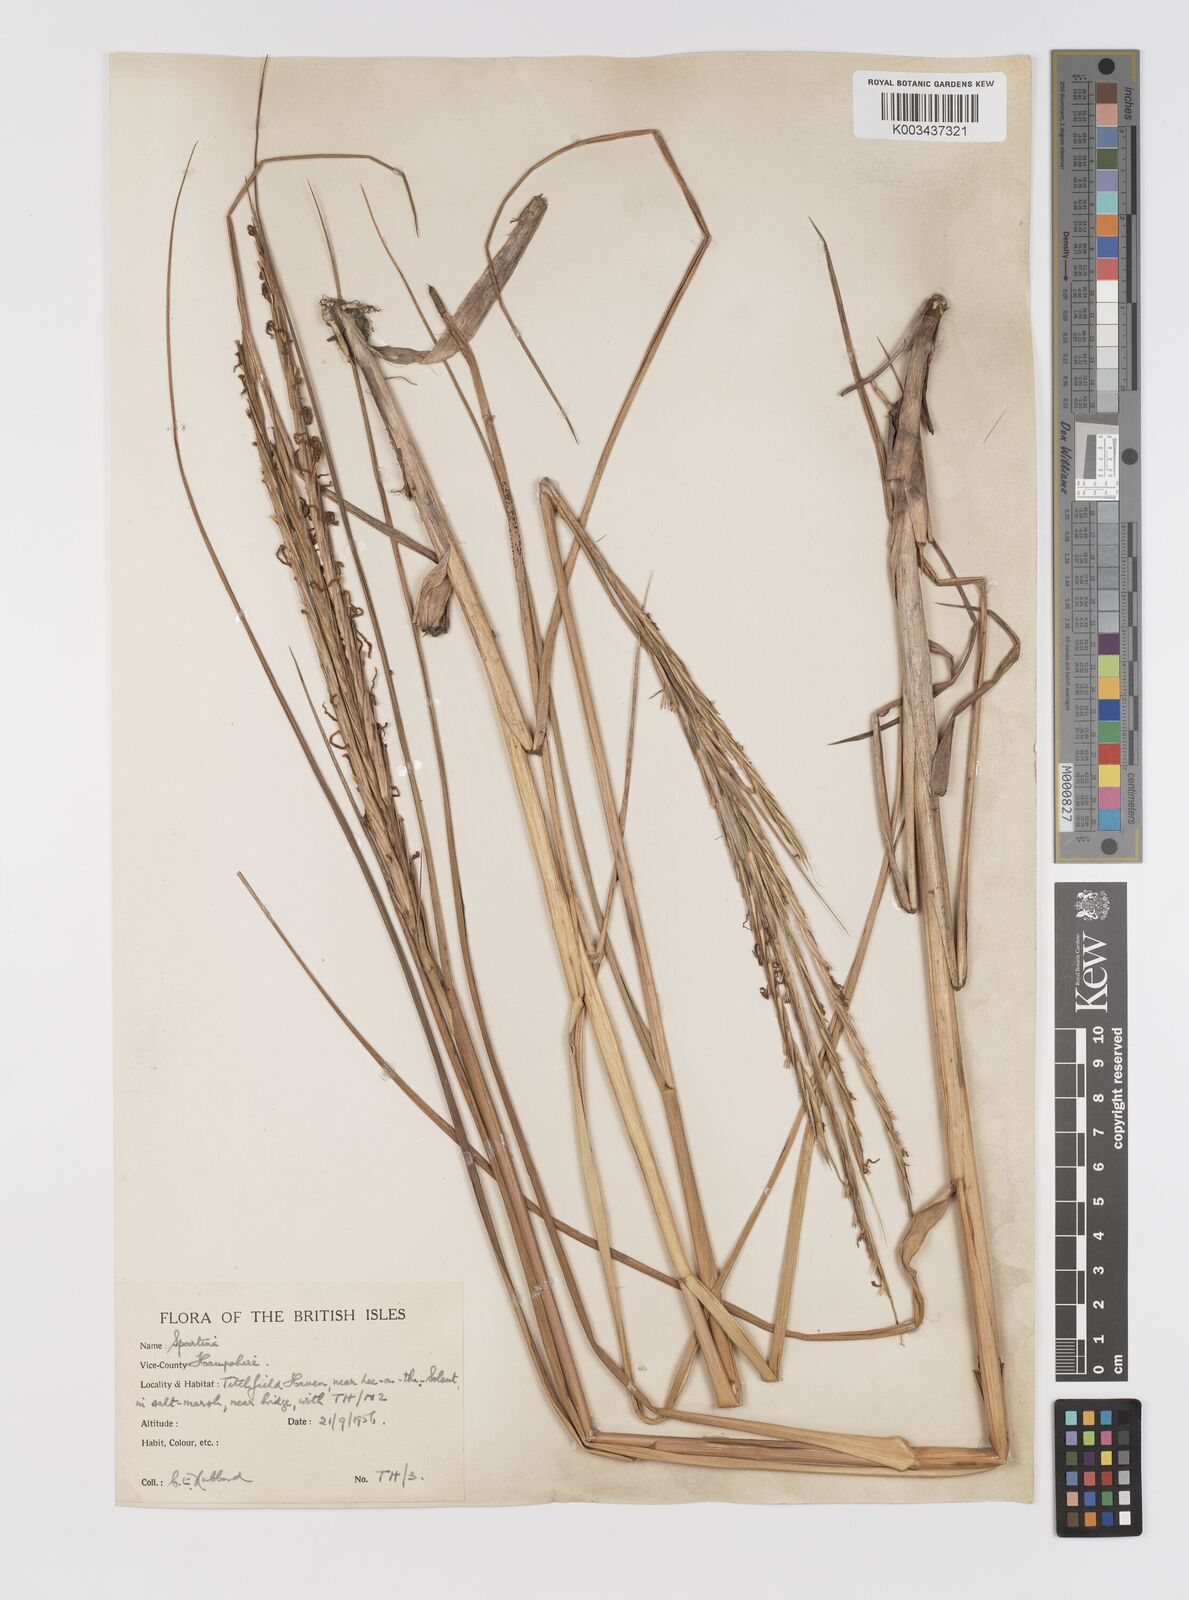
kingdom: Plantae
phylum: Tracheophyta
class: Liliopsida
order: Poales
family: Poaceae
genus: Sporobolus
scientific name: Sporobolus townsendii
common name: Townsend's cordgrass
